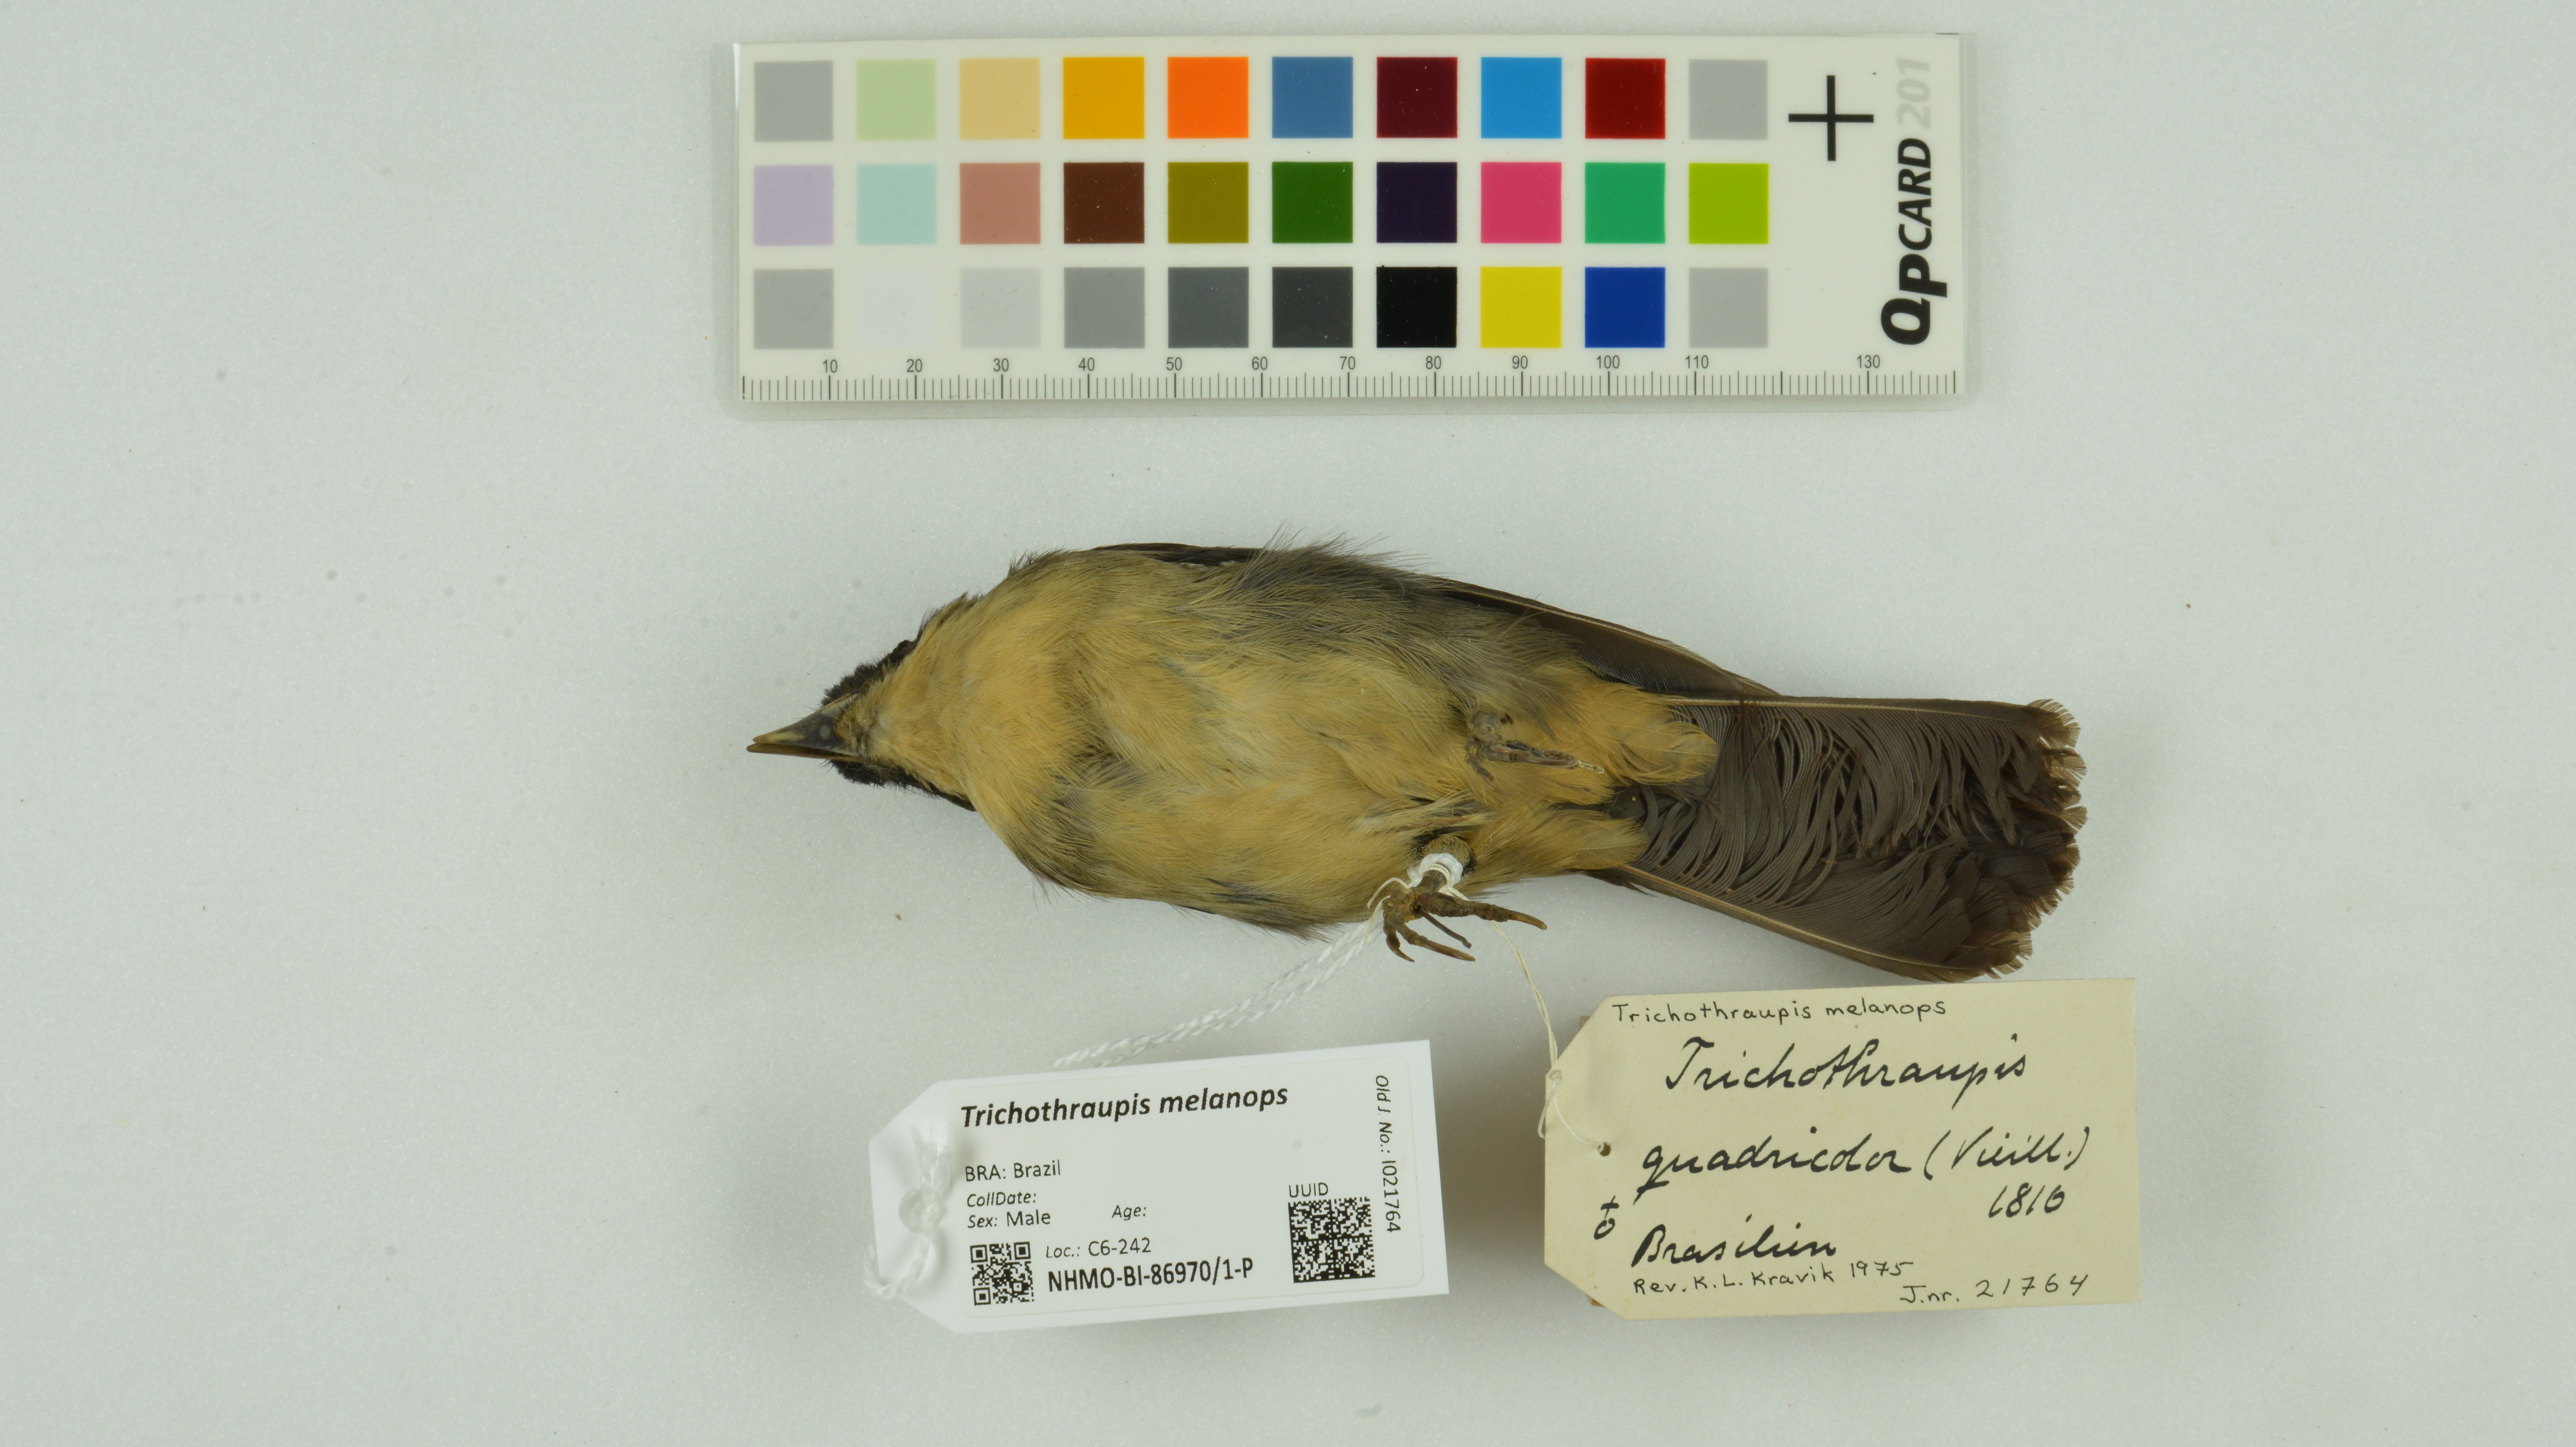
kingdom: Animalia
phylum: Chordata
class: Aves
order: Passeriformes
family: Thraupidae
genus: Trichothraupis
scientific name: Trichothraupis melanops
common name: Black-goggled tanager
